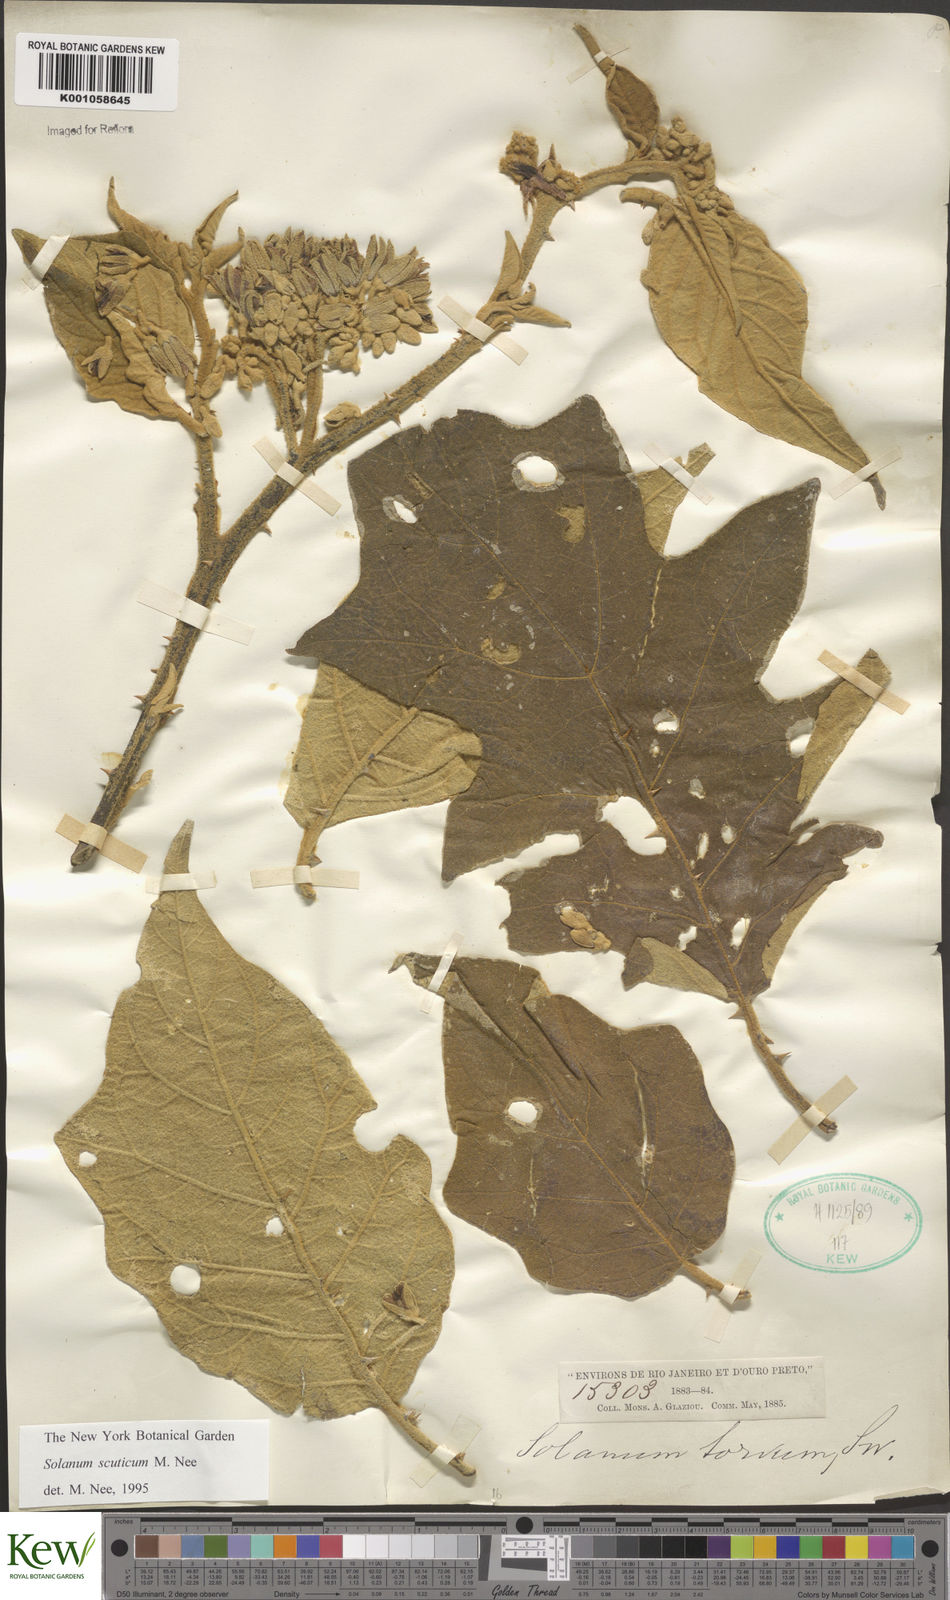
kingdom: Plantae
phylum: Tracheophyta
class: Magnoliopsida
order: Solanales
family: Solanaceae
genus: Solanum
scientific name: Solanum scuticum
